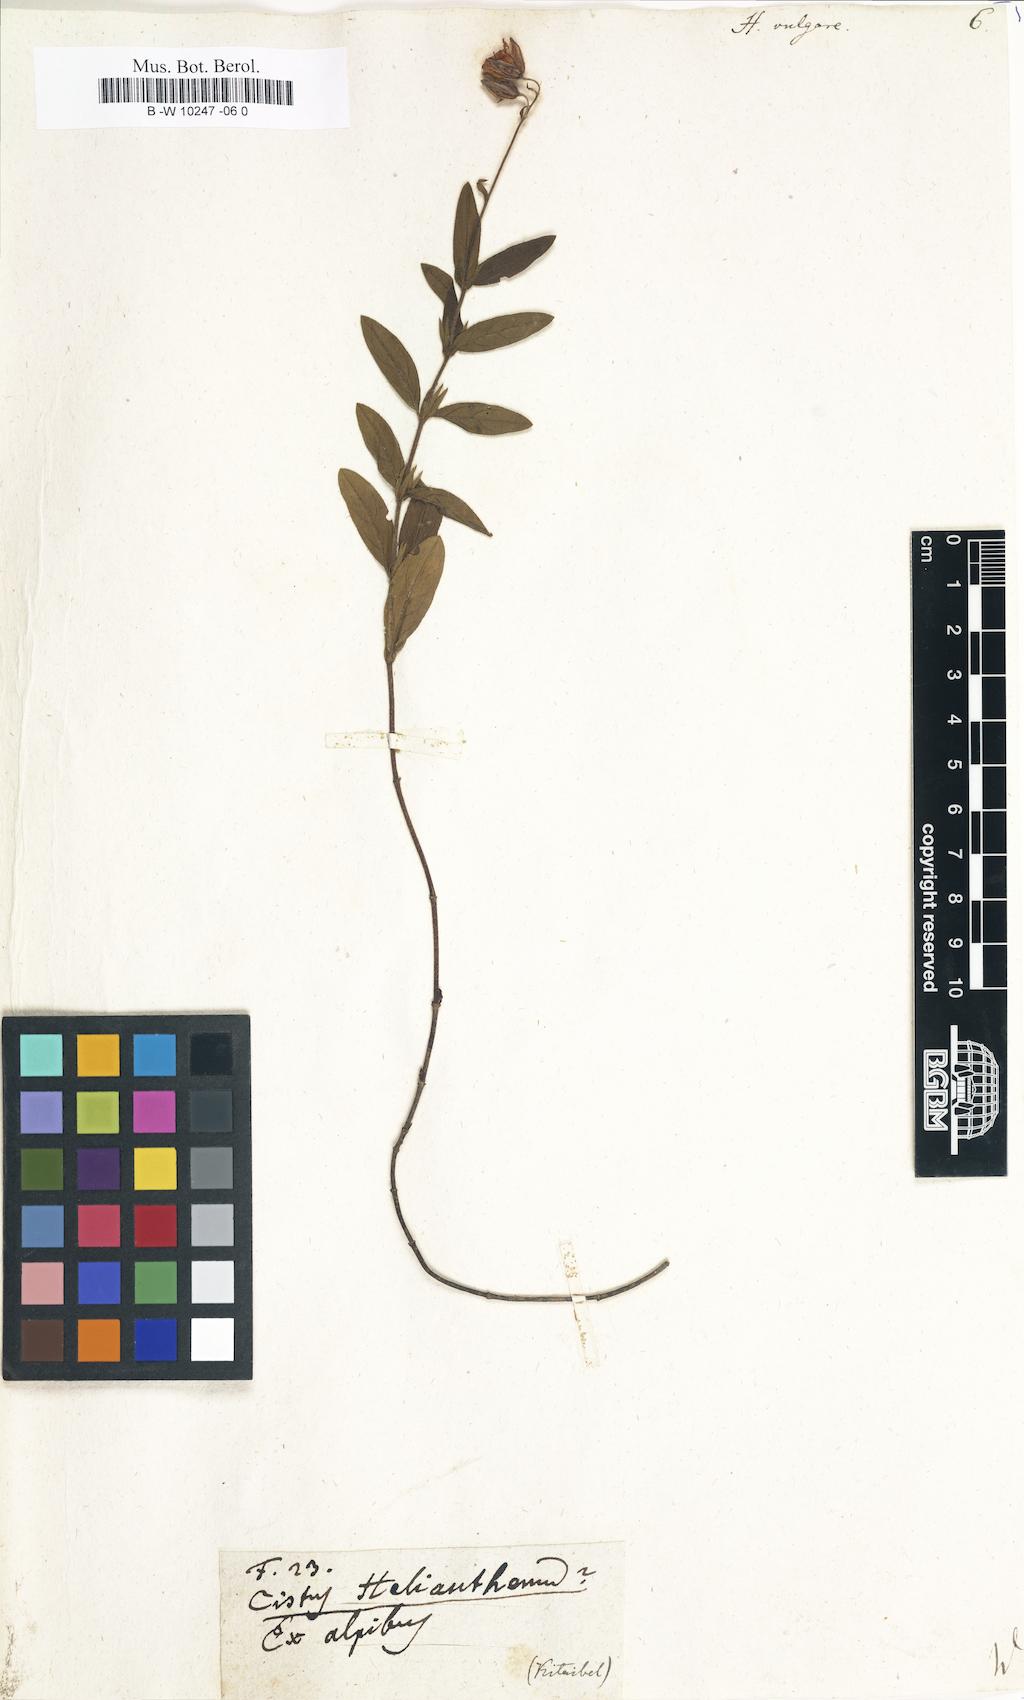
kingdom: Plantae
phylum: Tracheophyta
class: Magnoliopsida
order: Malvales
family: Cistaceae
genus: Helianthemum
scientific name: Helianthemum nummularium
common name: Common rock-rose
